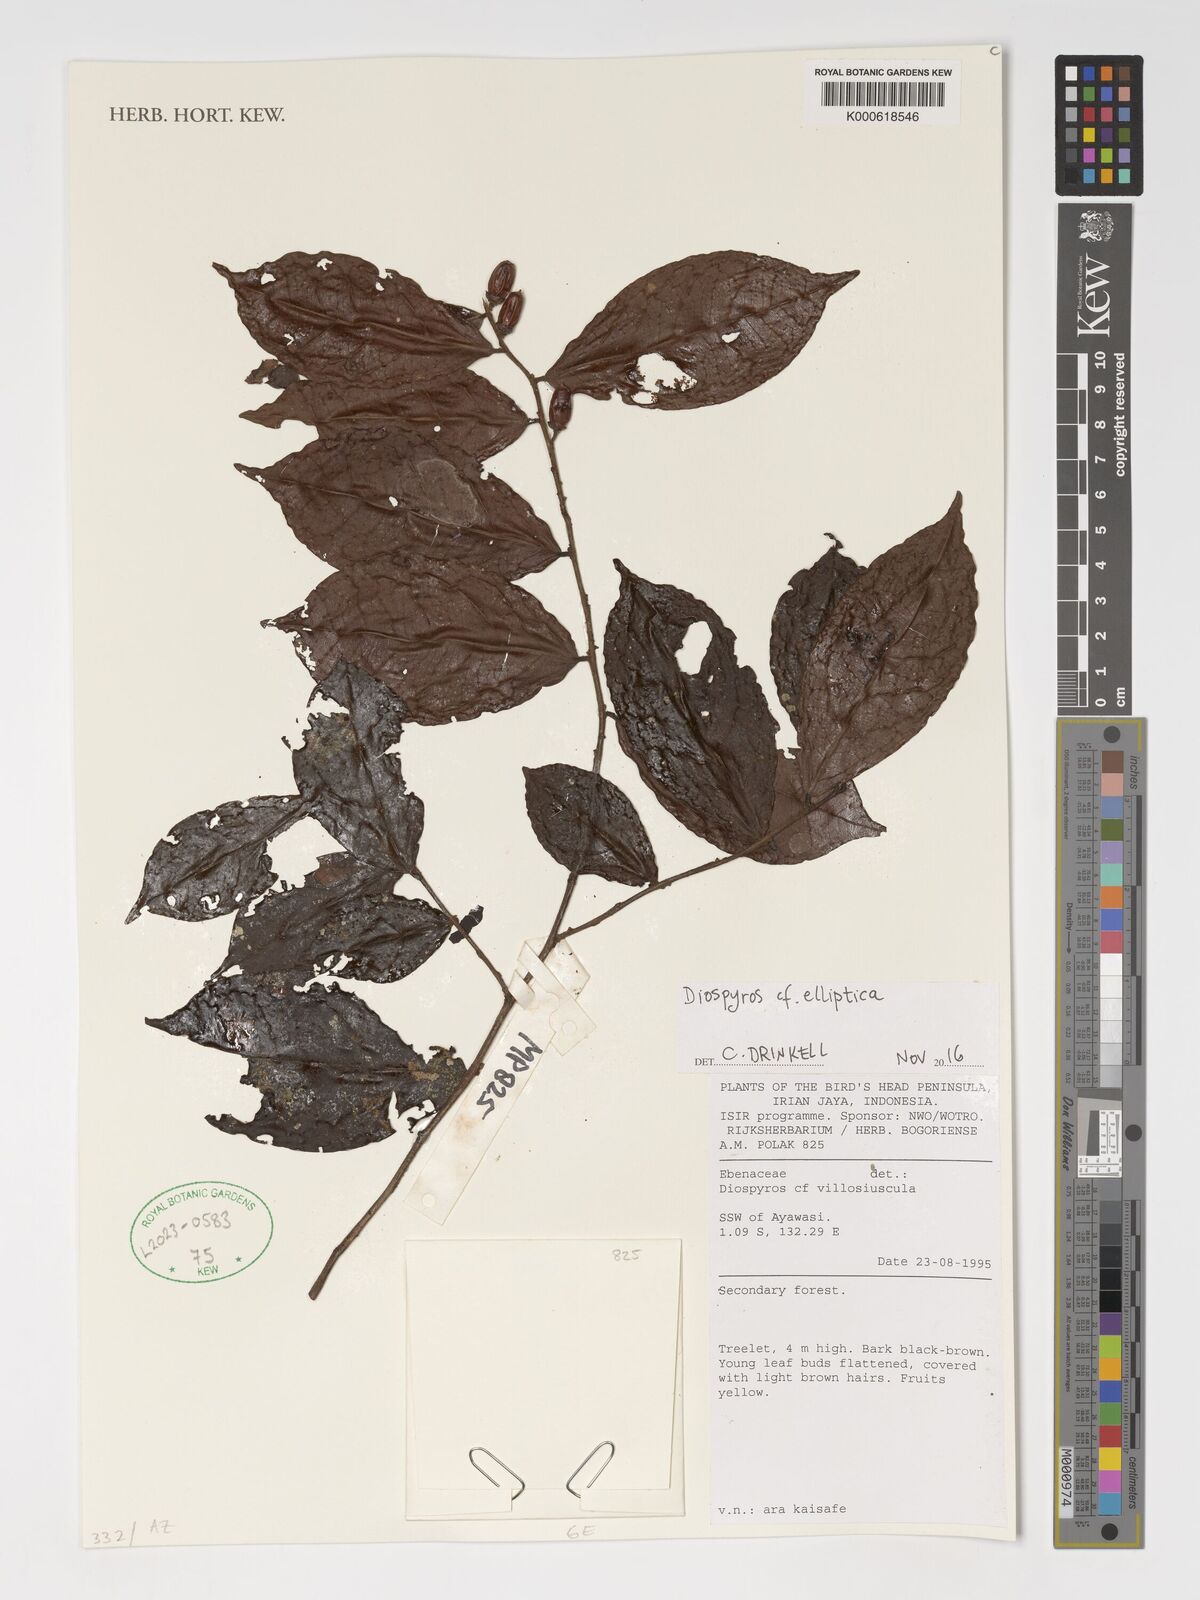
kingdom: Plantae
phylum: Tracheophyta
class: Magnoliopsida
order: Ericales
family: Ebenaceae
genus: Diospyros
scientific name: Diospyros foliosa
